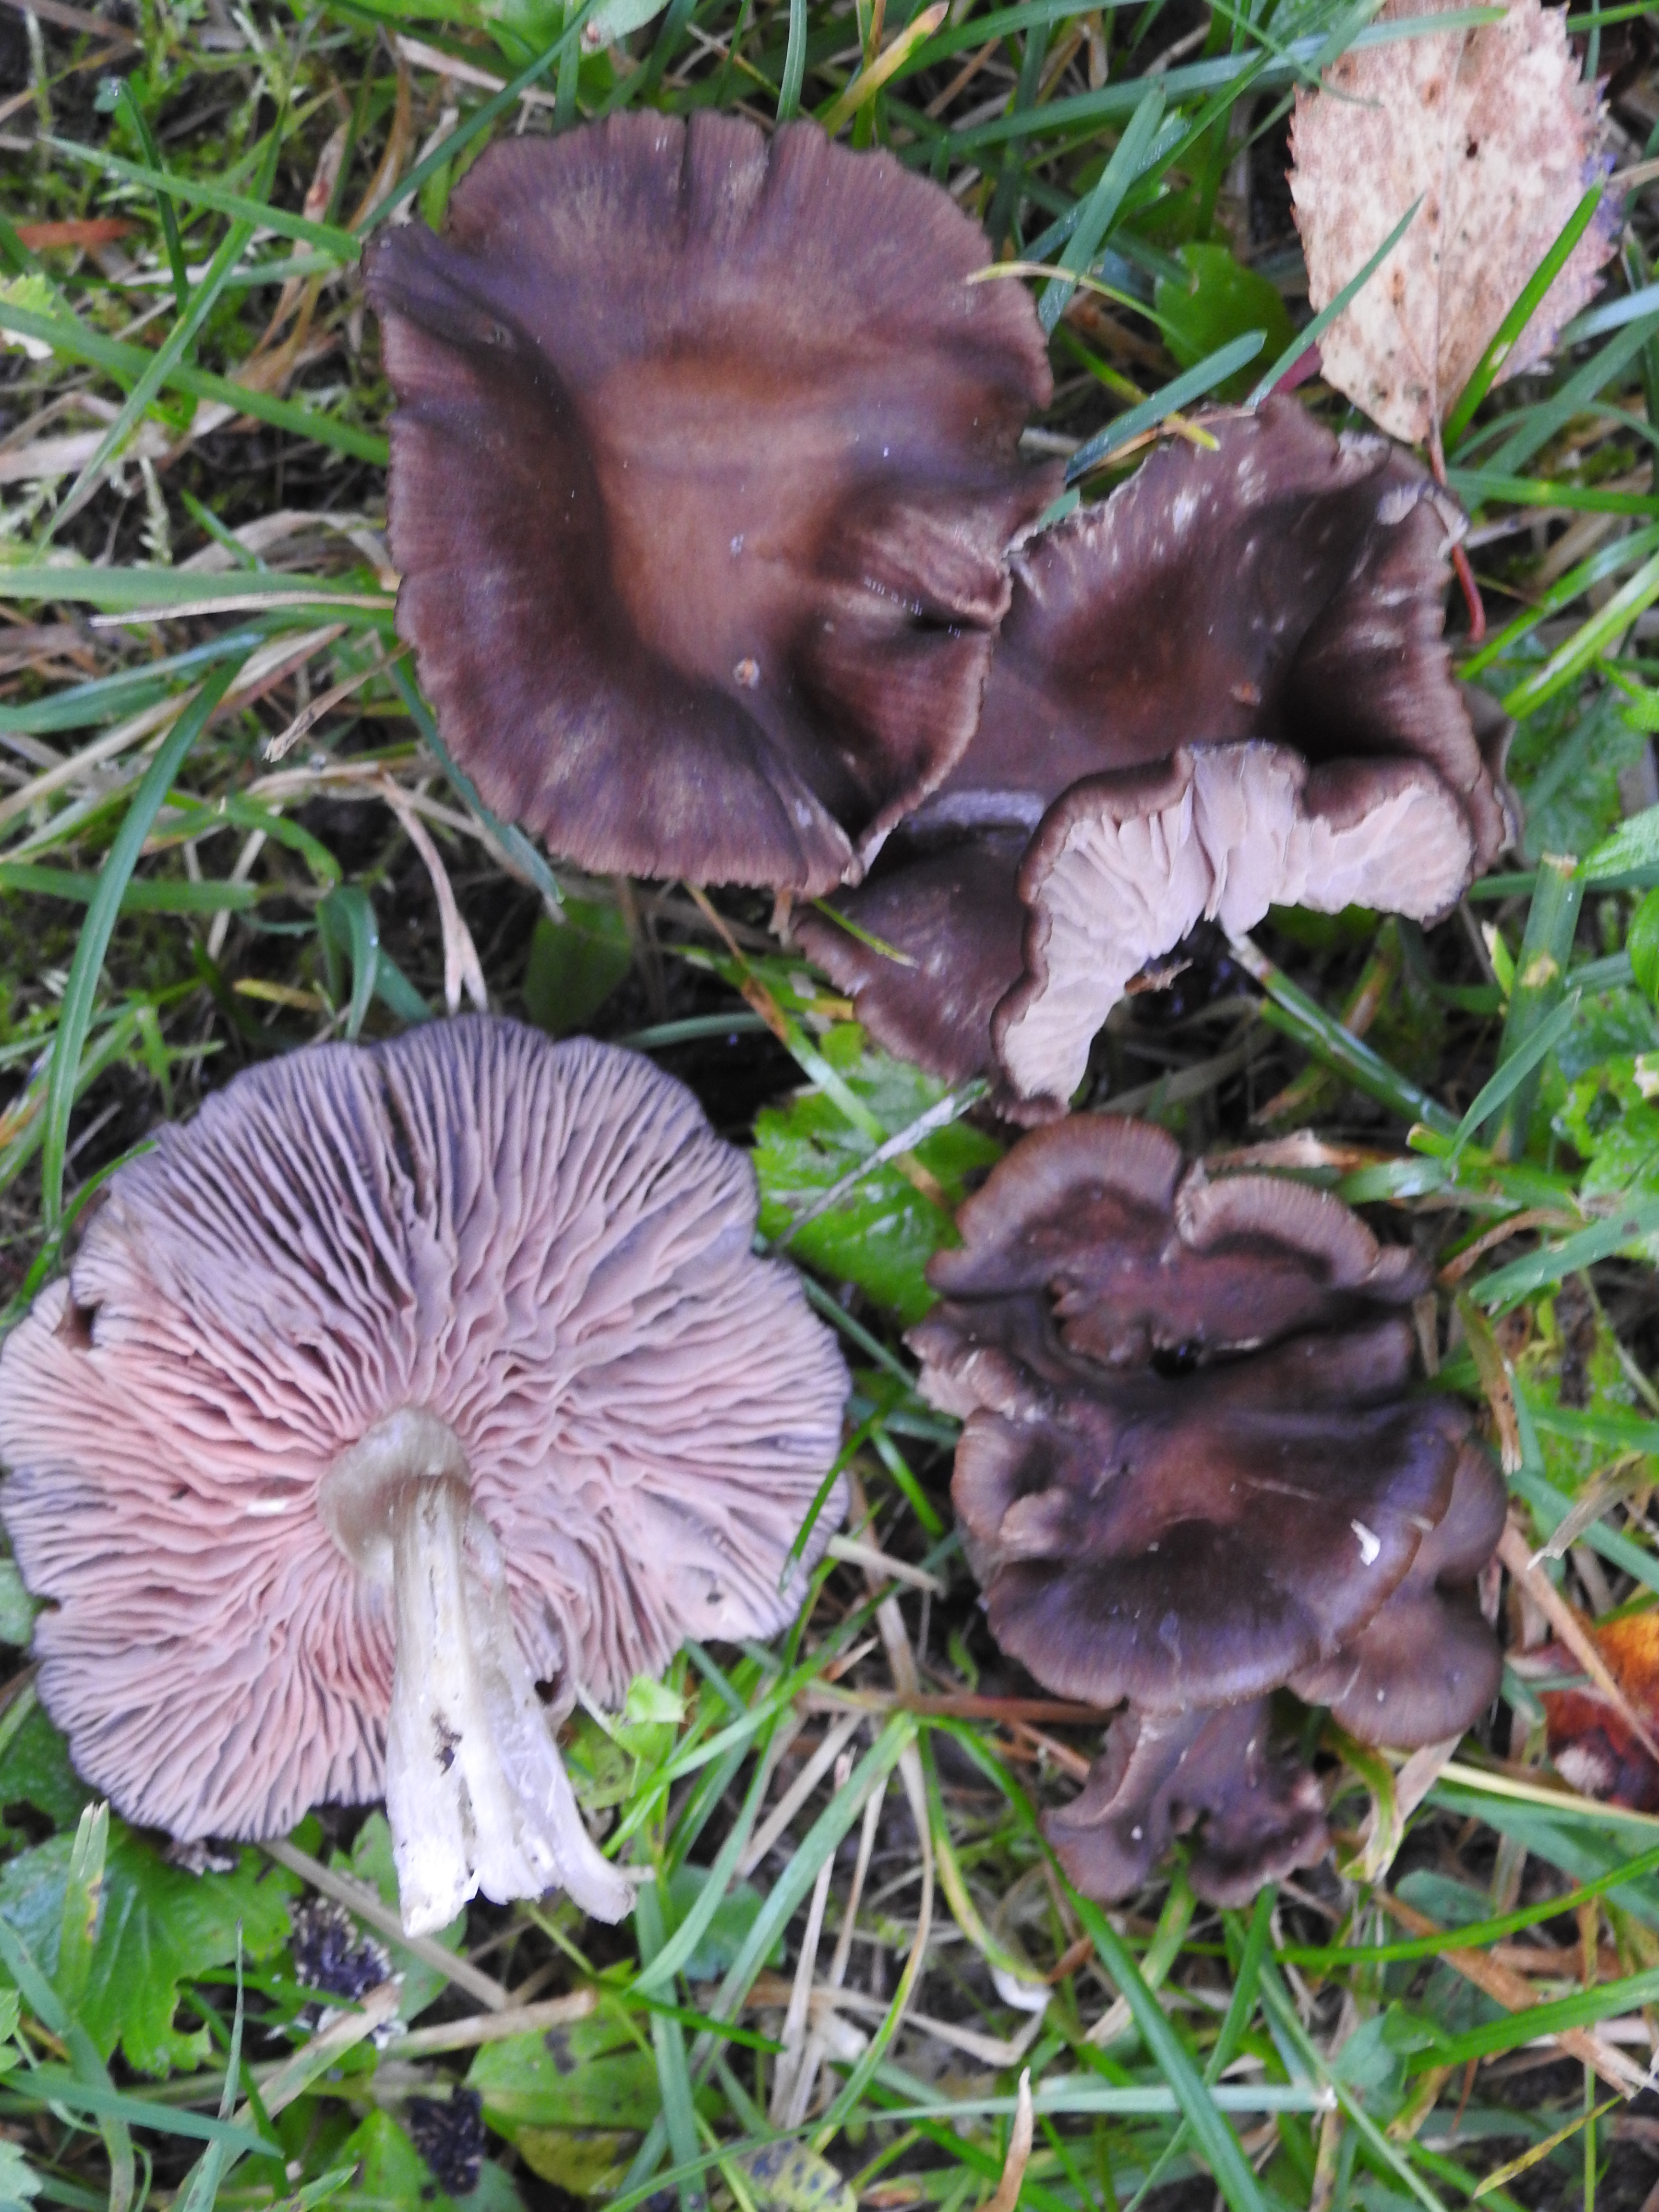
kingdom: Fungi
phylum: Basidiomycota
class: Agaricomycetes
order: Agaricales
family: Pluteaceae
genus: Pluteus
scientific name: Pluteus cervinus
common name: Deer shield
